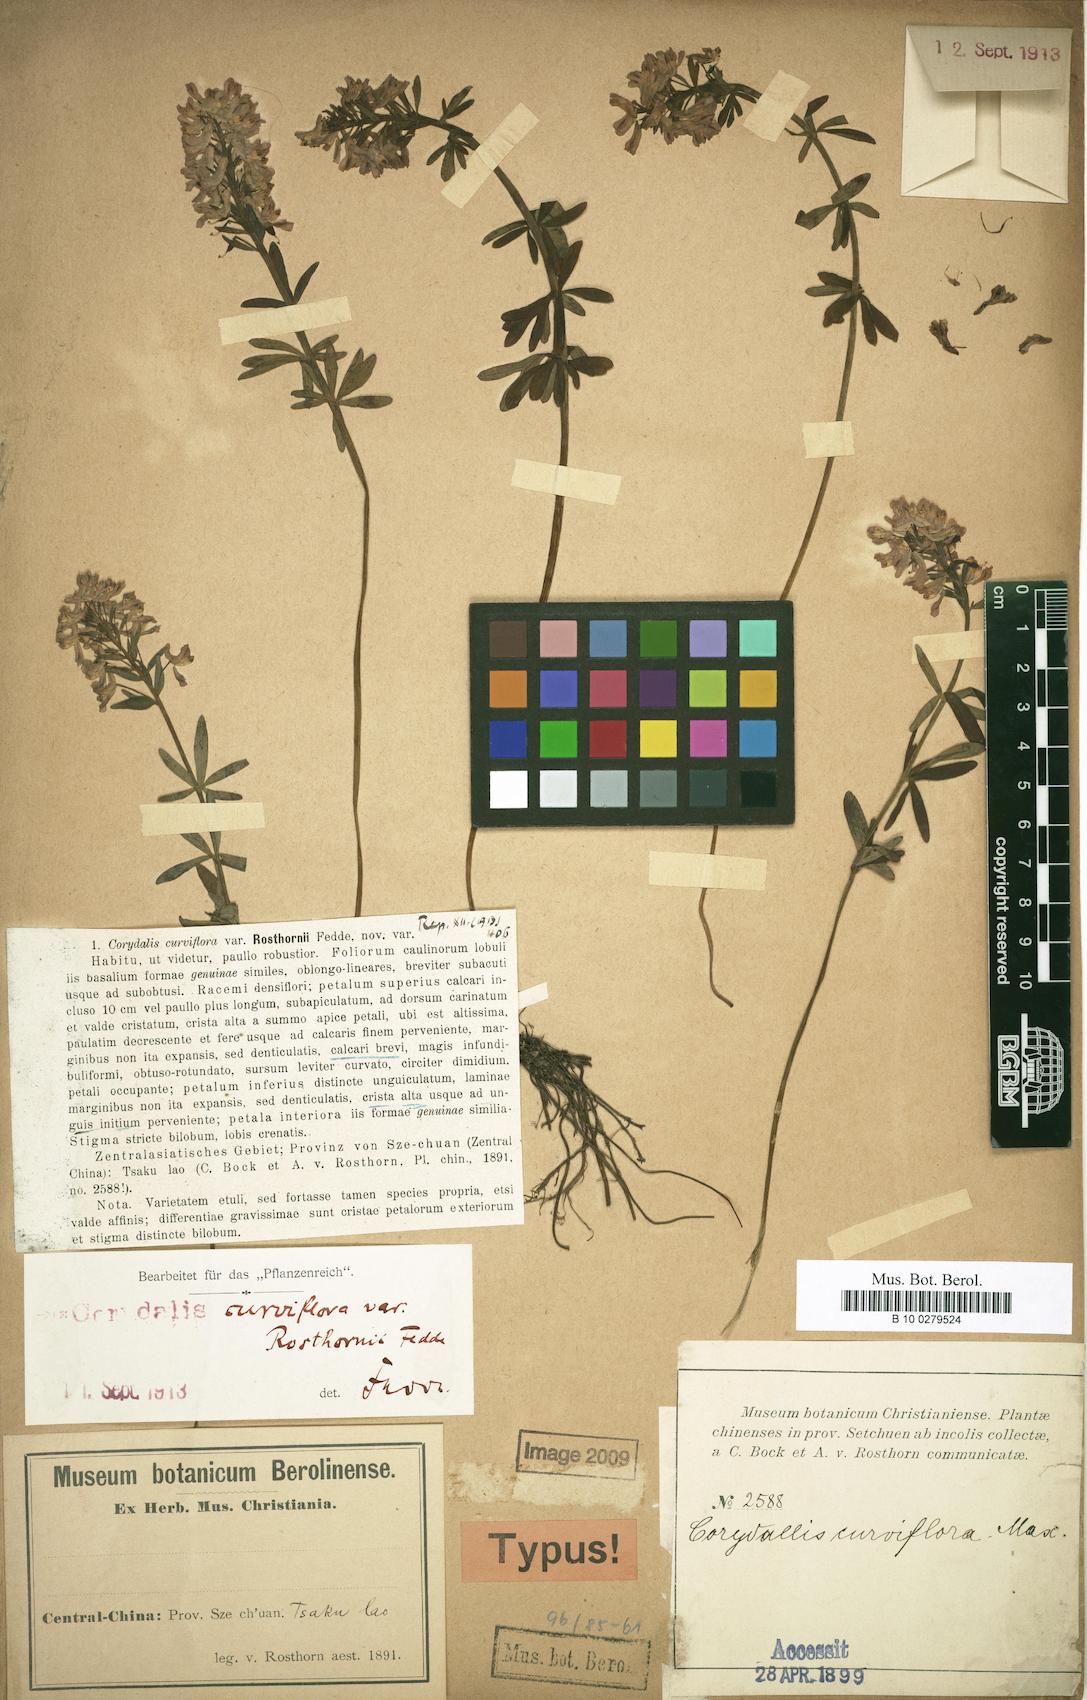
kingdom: Plantae
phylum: Tracheophyta
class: Magnoliopsida
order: Ranunculales
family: Papaveraceae
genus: Corydalis
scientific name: Corydalis curviflora
